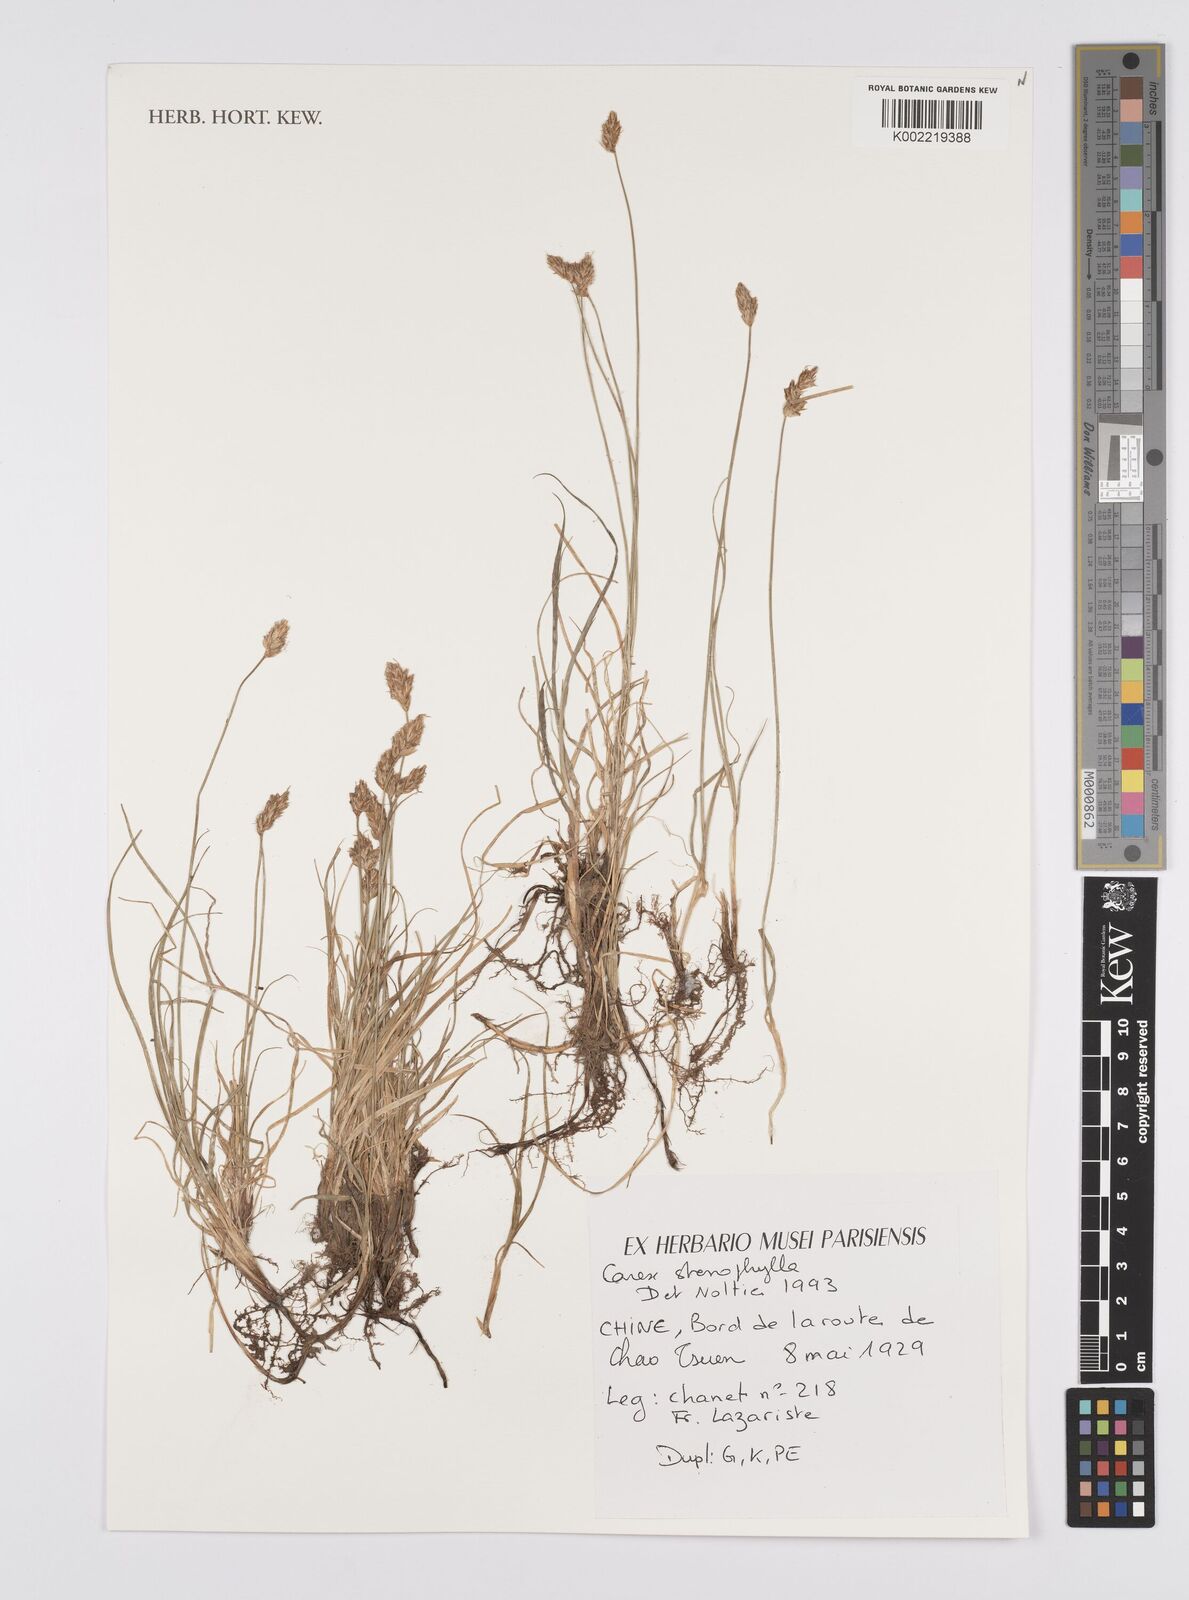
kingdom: Plantae
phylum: Tracheophyta
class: Liliopsida
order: Poales
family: Cyperaceae
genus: Carex
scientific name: Carex stenophylla
